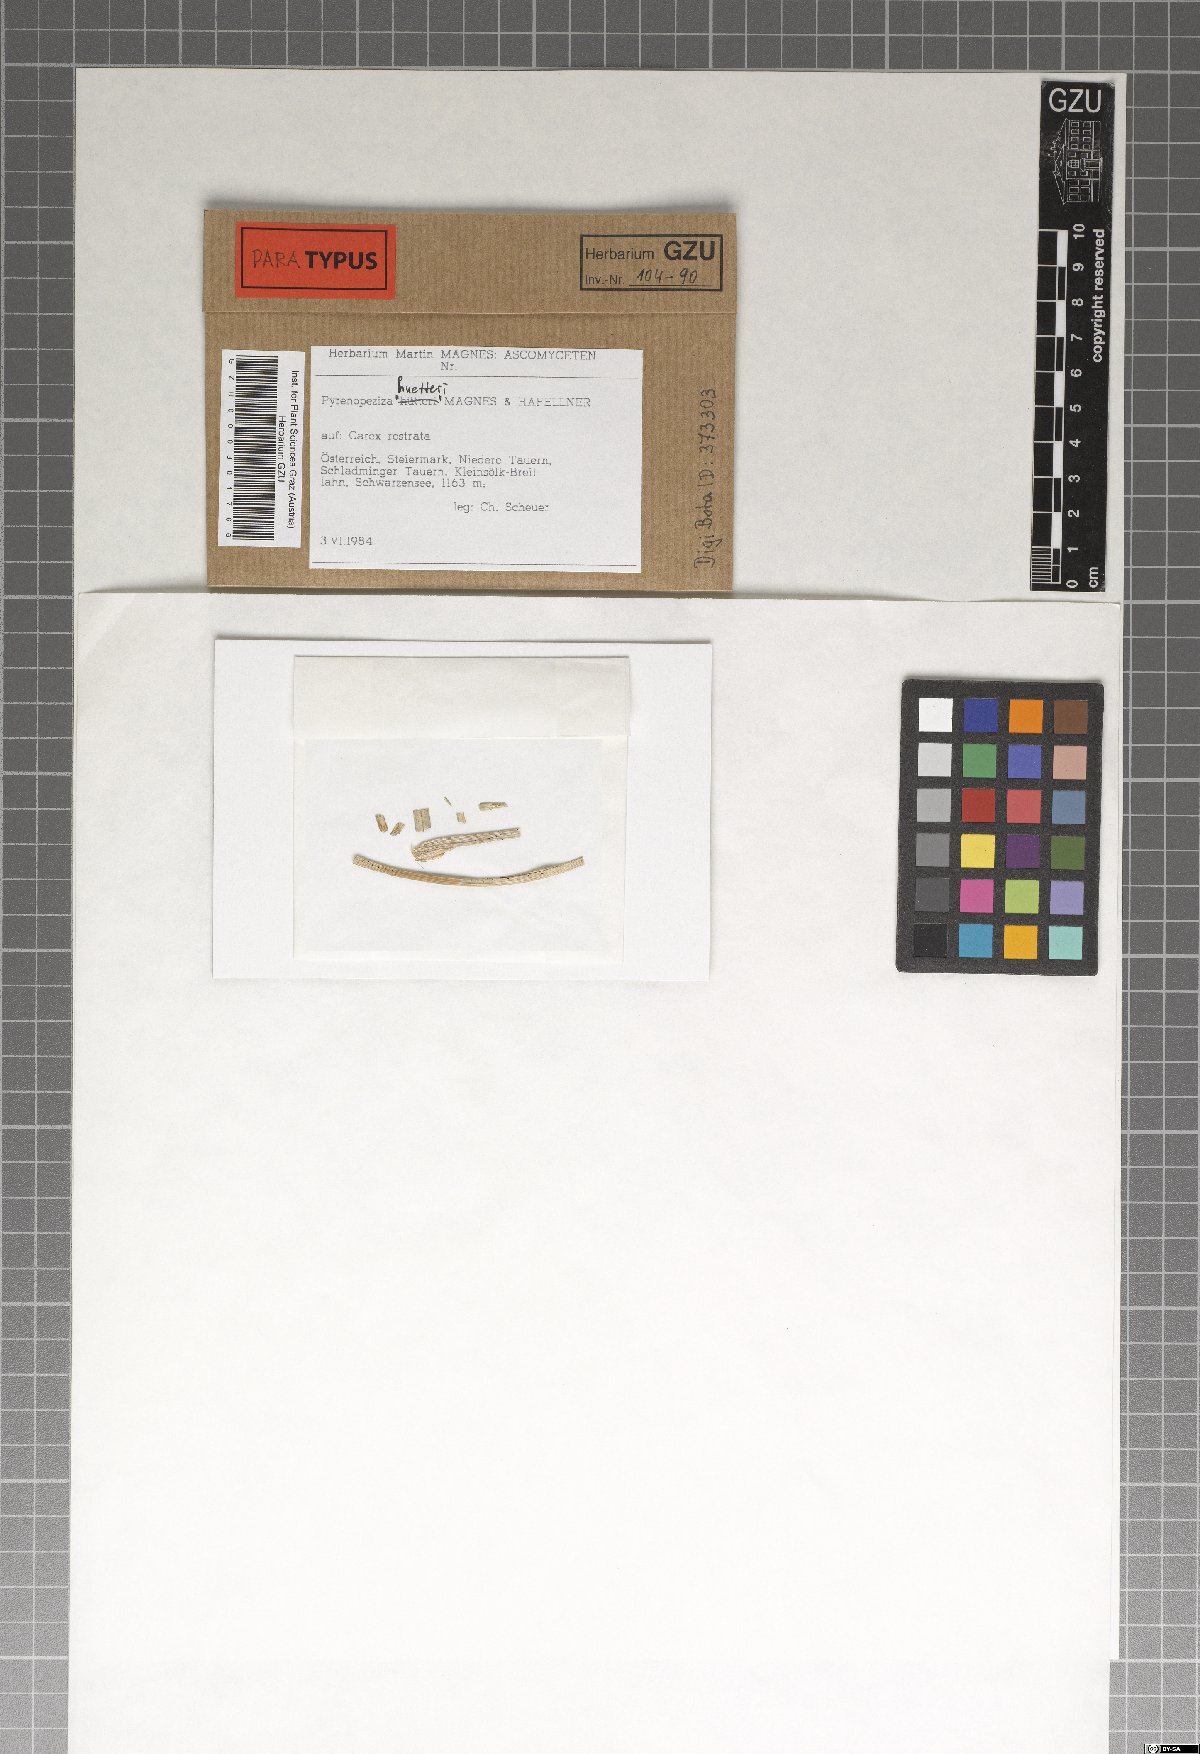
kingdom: Fungi
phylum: Ascomycota
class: Leotiomycetes
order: Helotiales
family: Ploettnerulaceae
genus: Pyrenopeziza
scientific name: Pyrenopeziza huetteri
